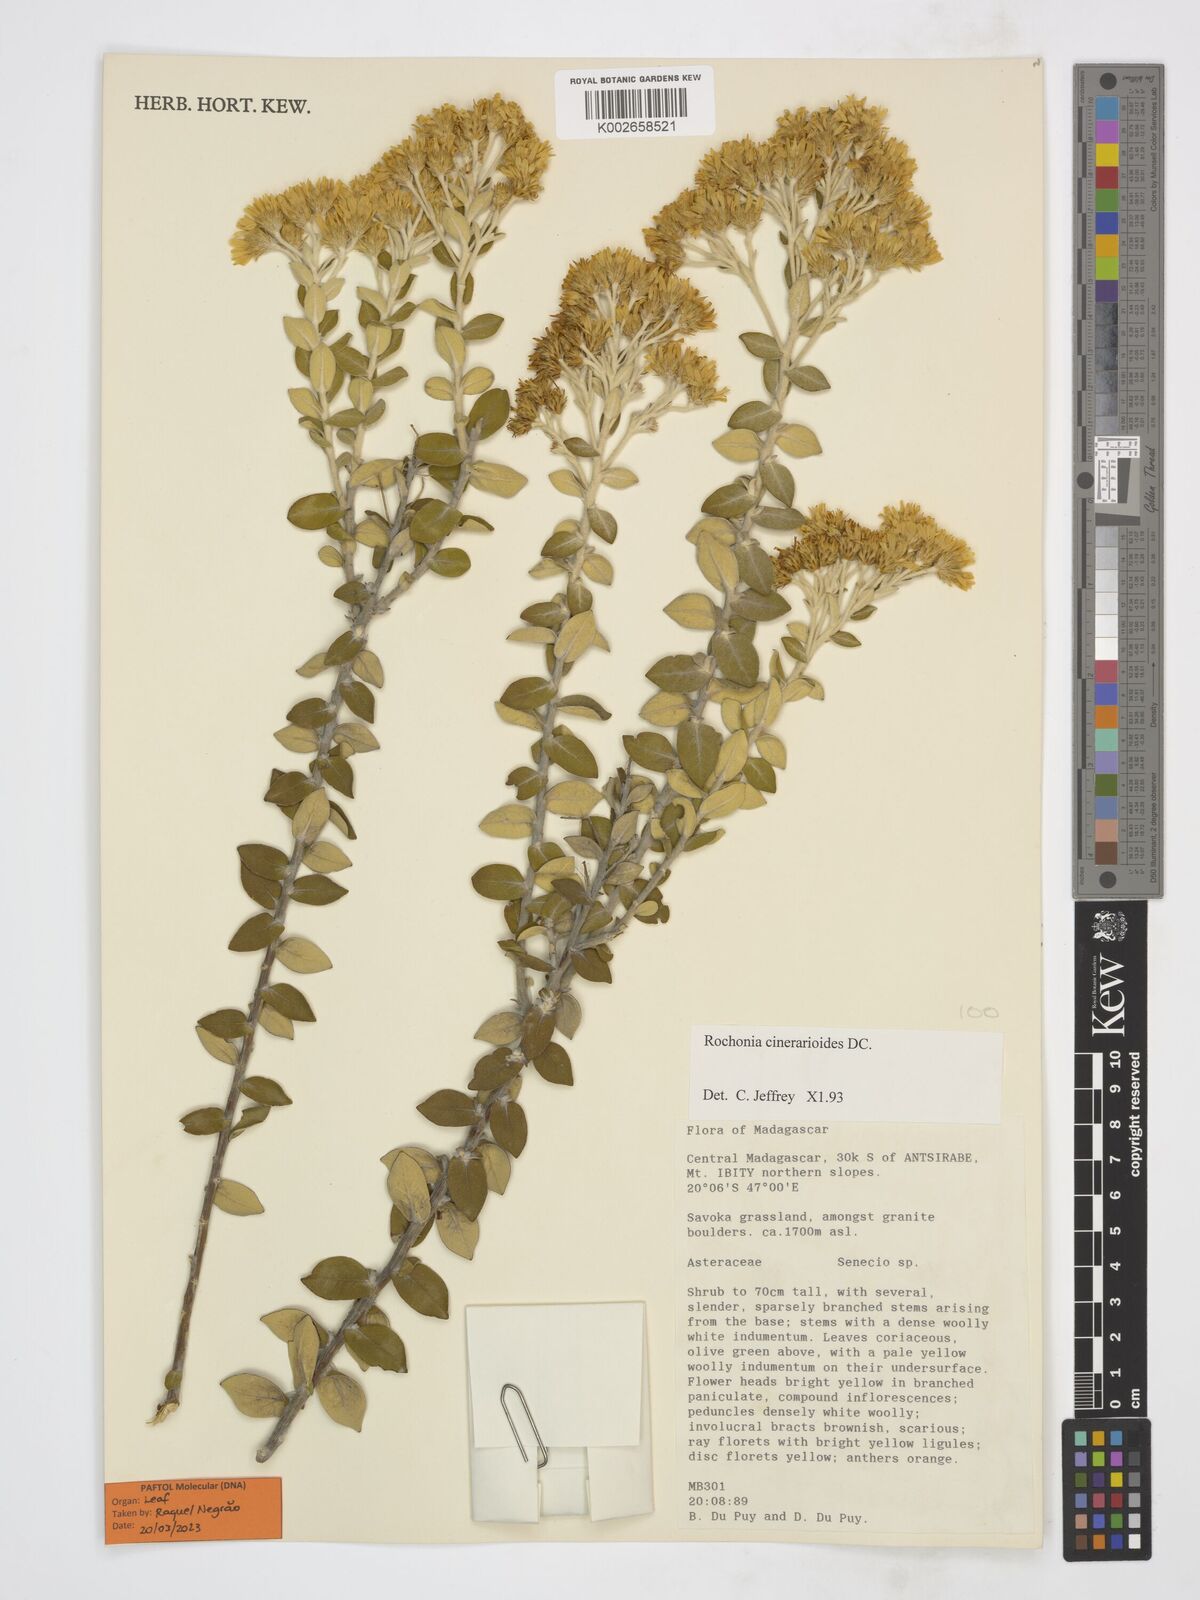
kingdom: Plantae
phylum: Tracheophyta
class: Magnoliopsida
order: Asterales
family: Asteraceae
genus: Rochonia
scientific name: Rochonia cinerarioides
